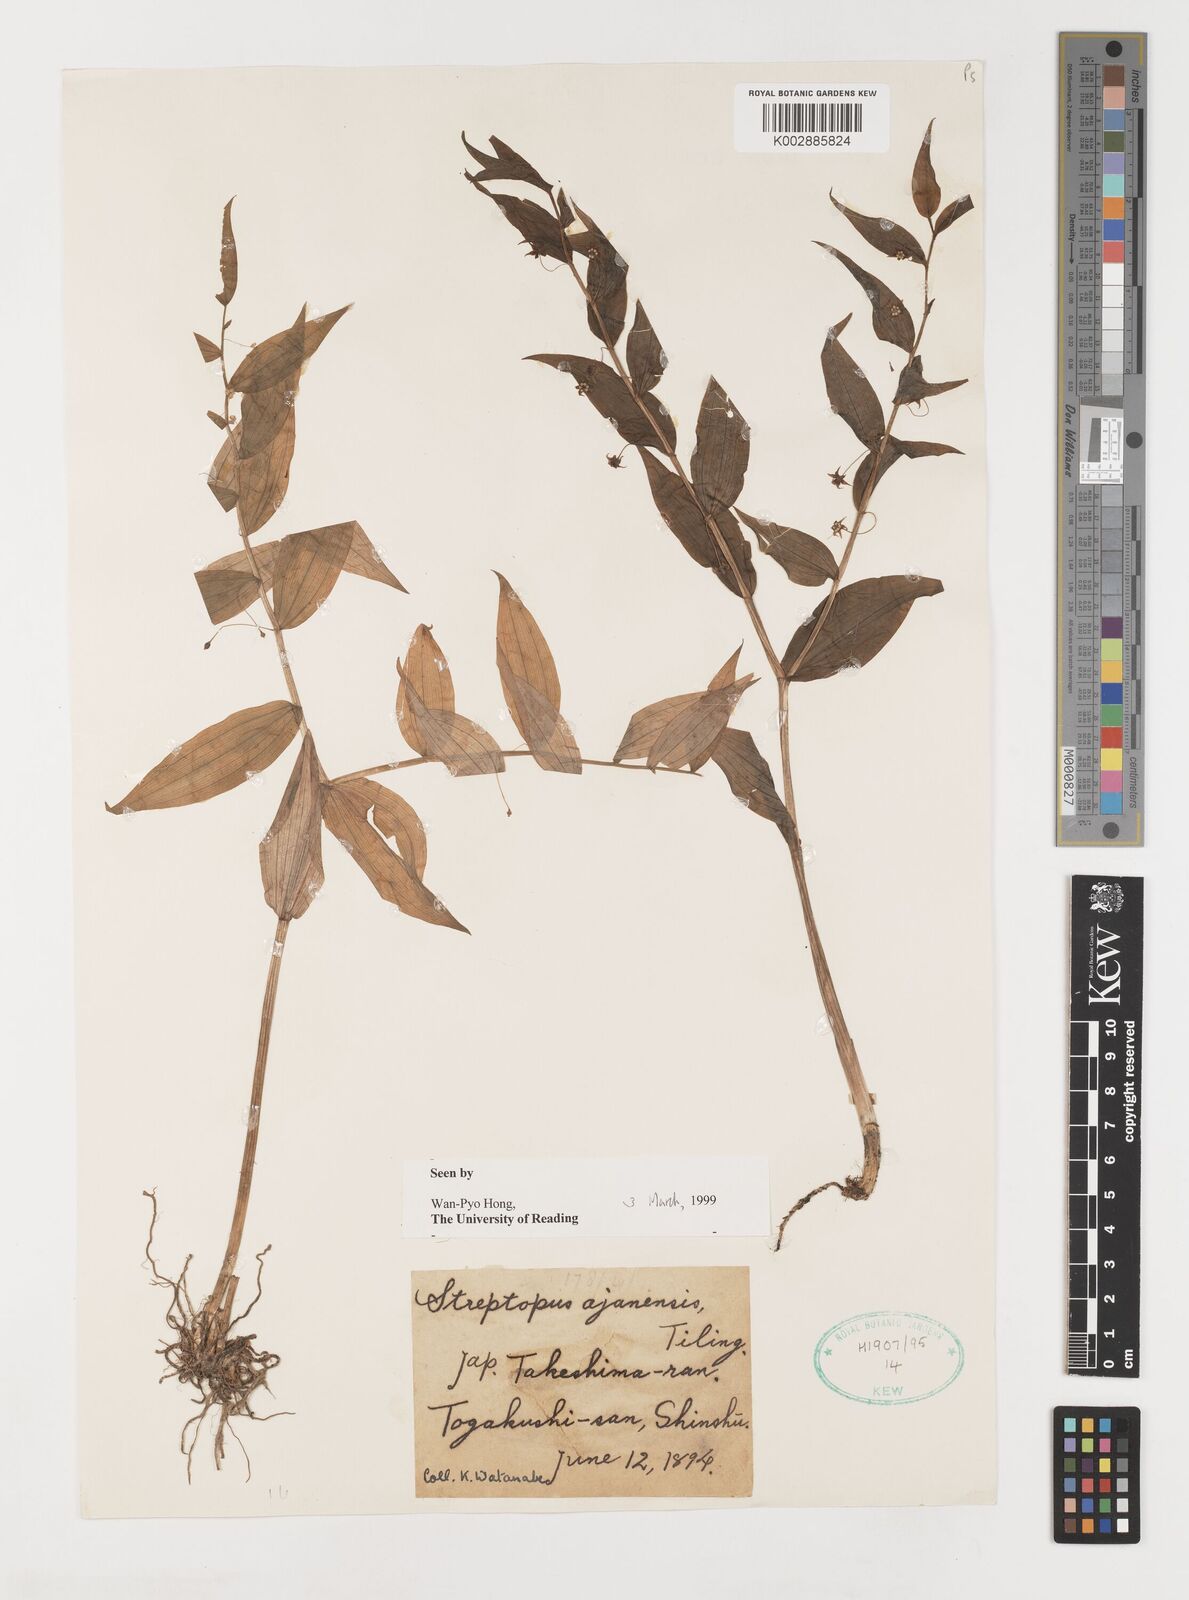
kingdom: Plantae
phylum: Tracheophyta
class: Liliopsida
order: Liliales
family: Liliaceae
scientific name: Liliaceae
